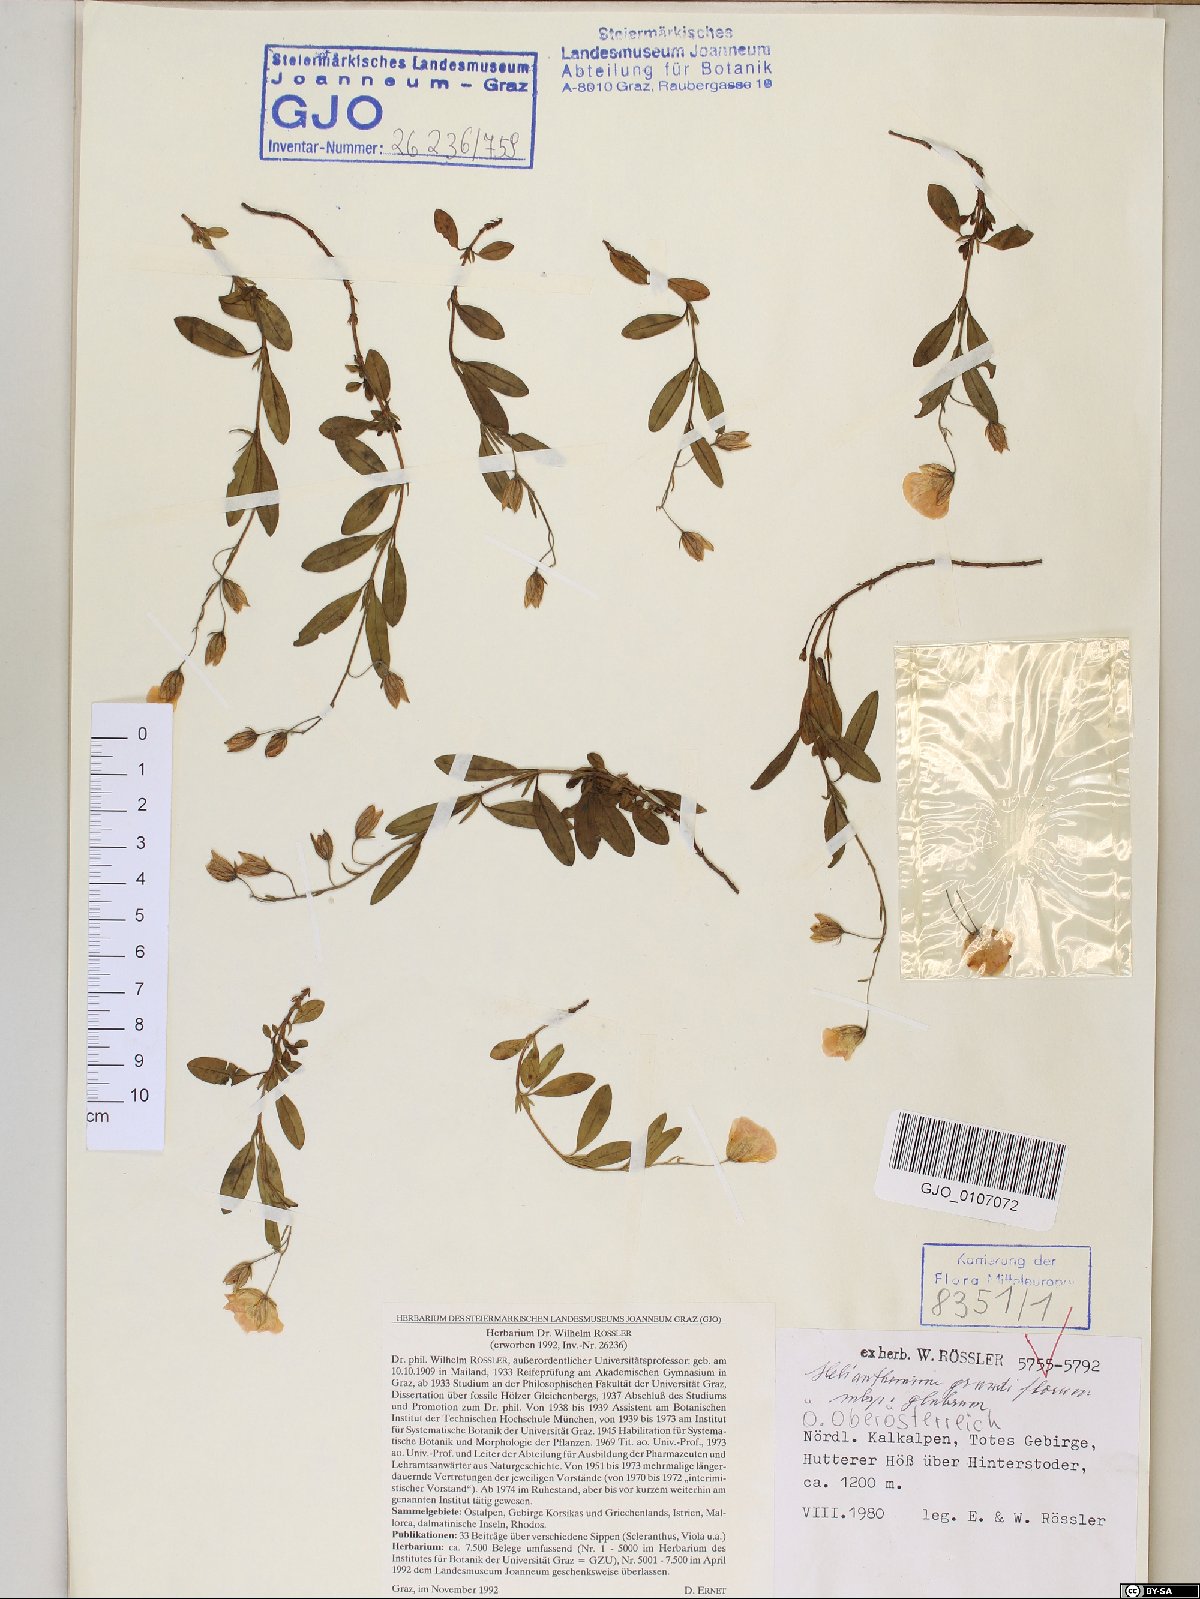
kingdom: Plantae
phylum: Tracheophyta
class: Magnoliopsida
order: Malvales
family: Cistaceae
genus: Helianthemum
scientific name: Helianthemum nummularium
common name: Common rock-rose
